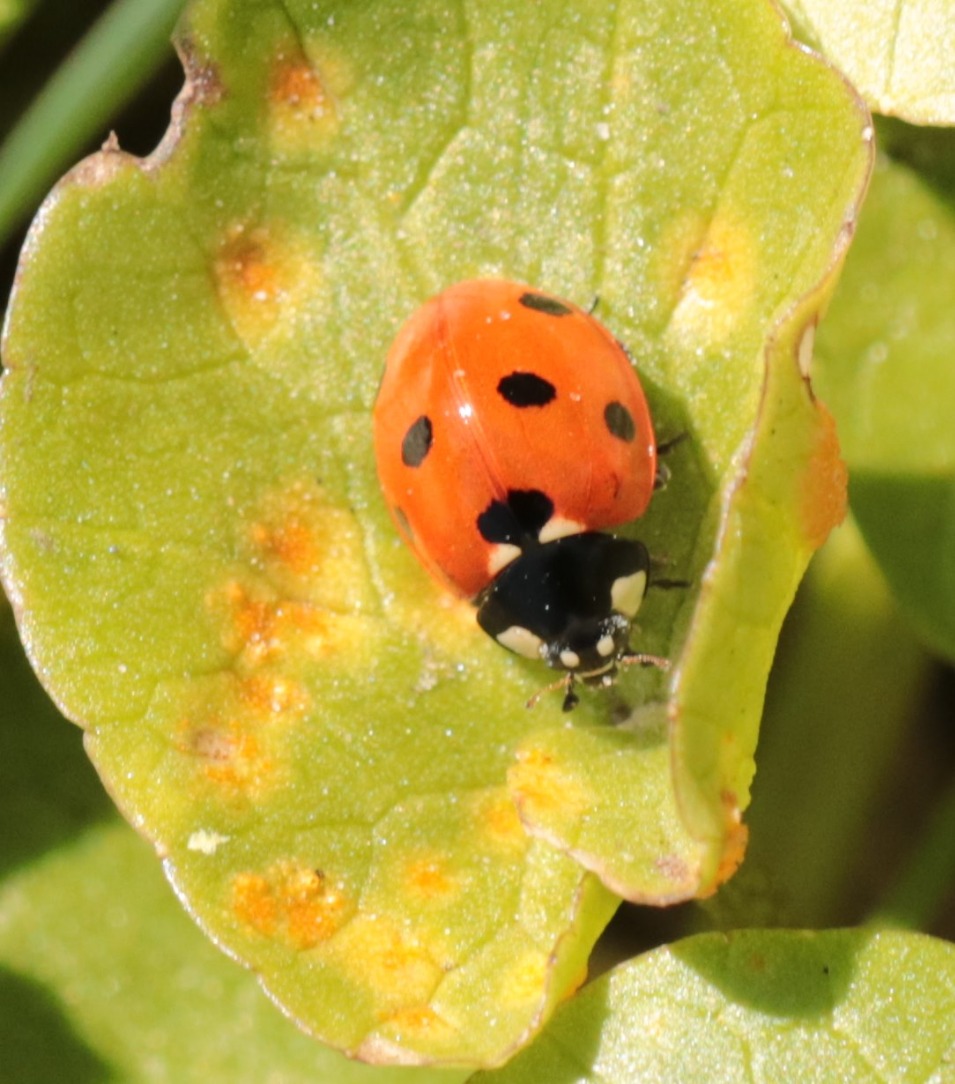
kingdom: Animalia
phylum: Arthropoda
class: Insecta
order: Coleoptera
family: Coccinellidae
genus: Coccinella
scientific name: Coccinella septempunctata
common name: Syvplettet mariehøne
